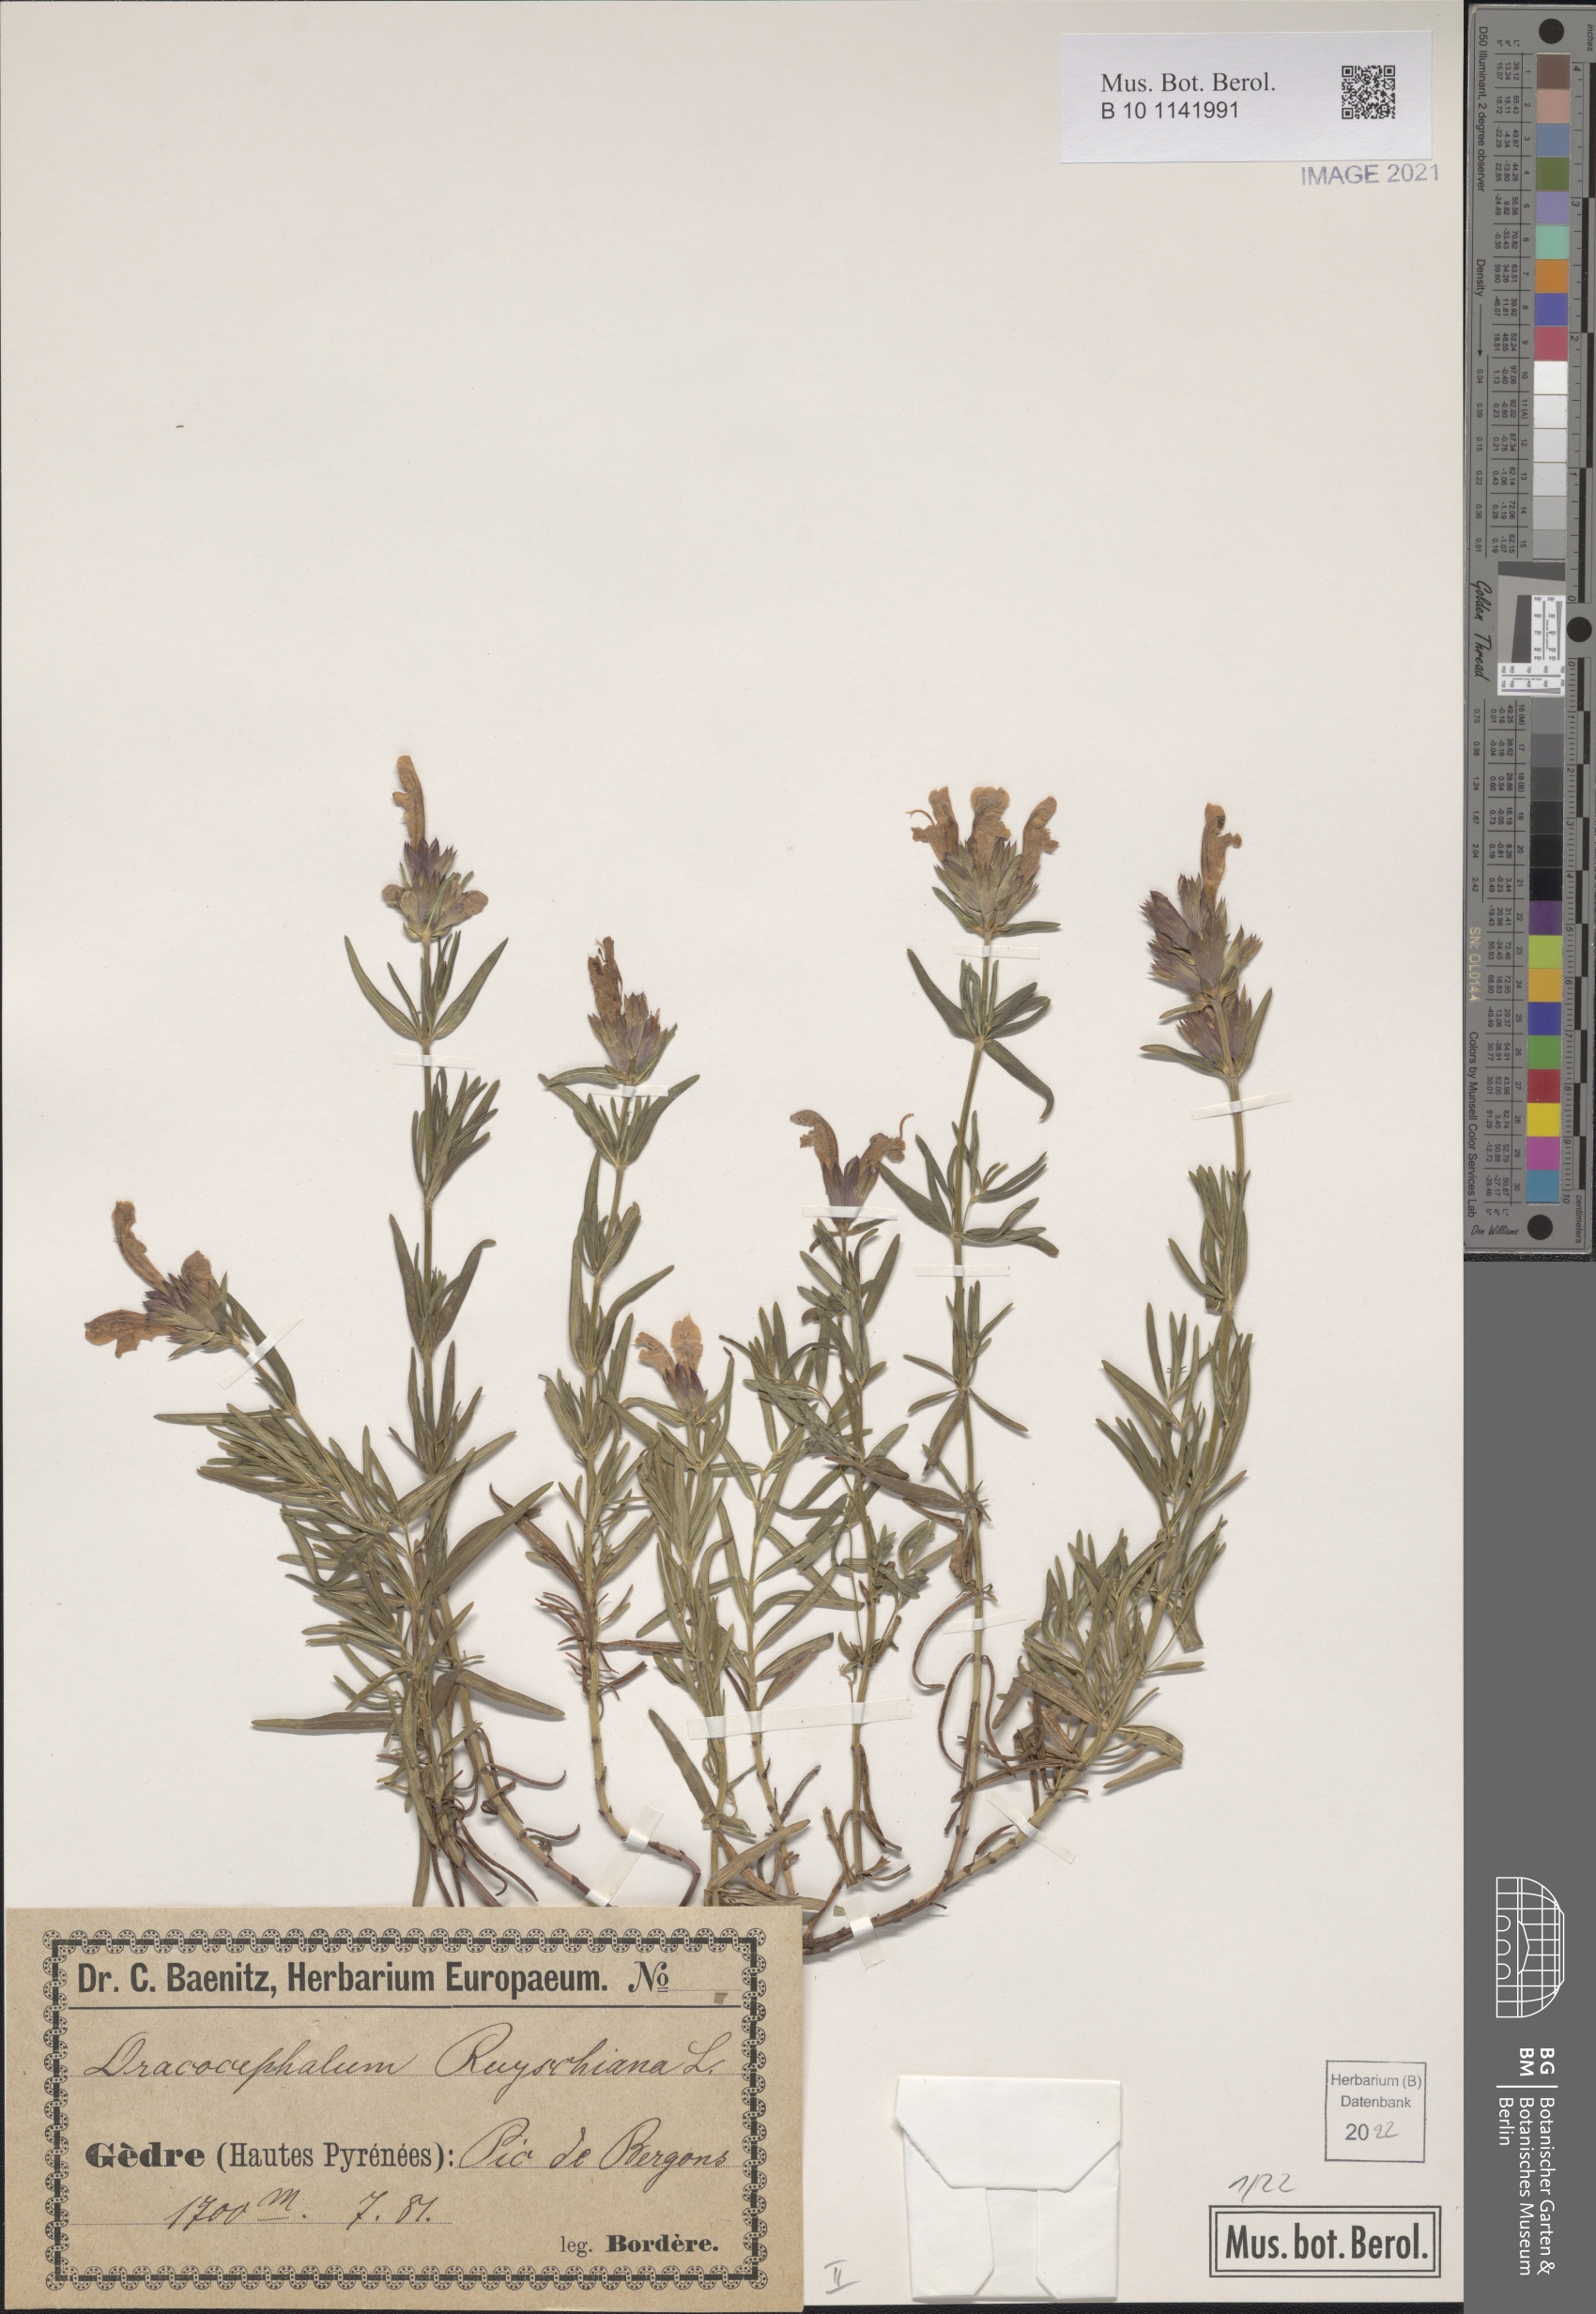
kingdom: Plantae
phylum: Tracheophyta
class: Magnoliopsida
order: Lamiales
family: Lamiaceae
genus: Dracocephalum
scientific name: Dracocephalum ruyschiana
